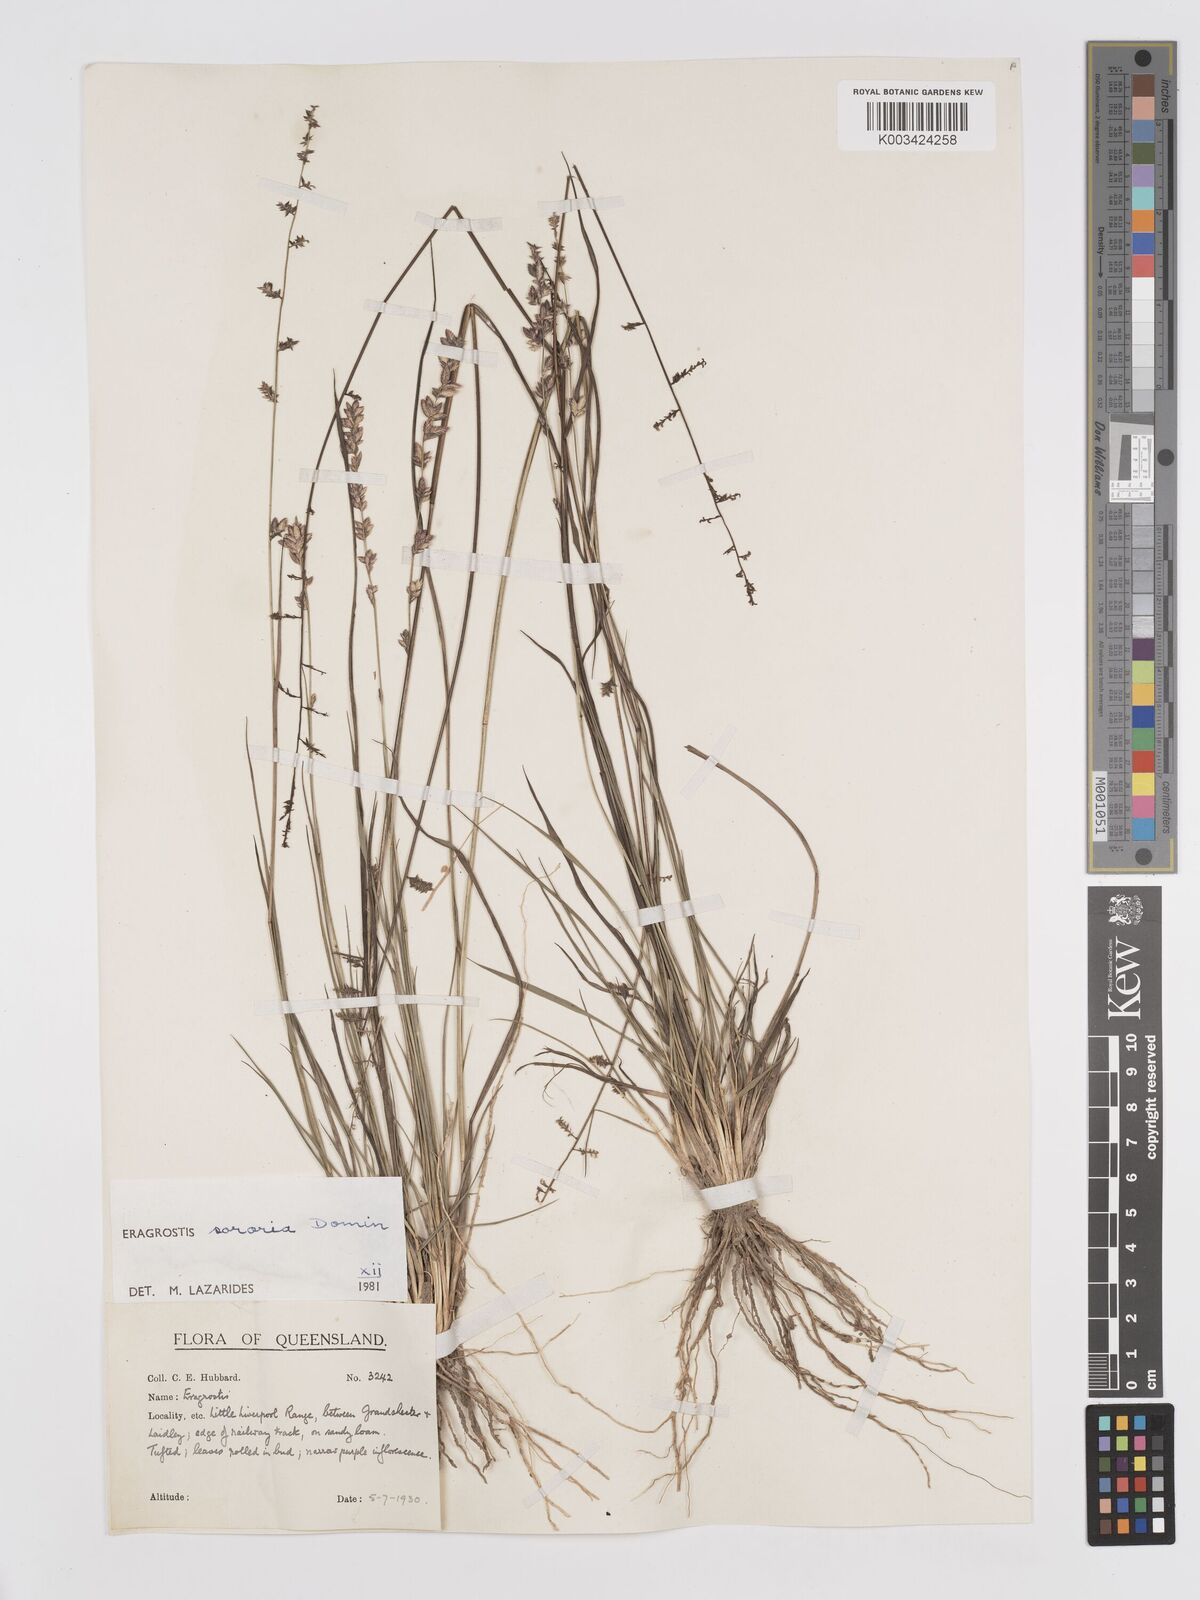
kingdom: Plantae
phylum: Tracheophyta
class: Liliopsida
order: Poales
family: Poaceae
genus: Eragrostis
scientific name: Eragrostis sororia
